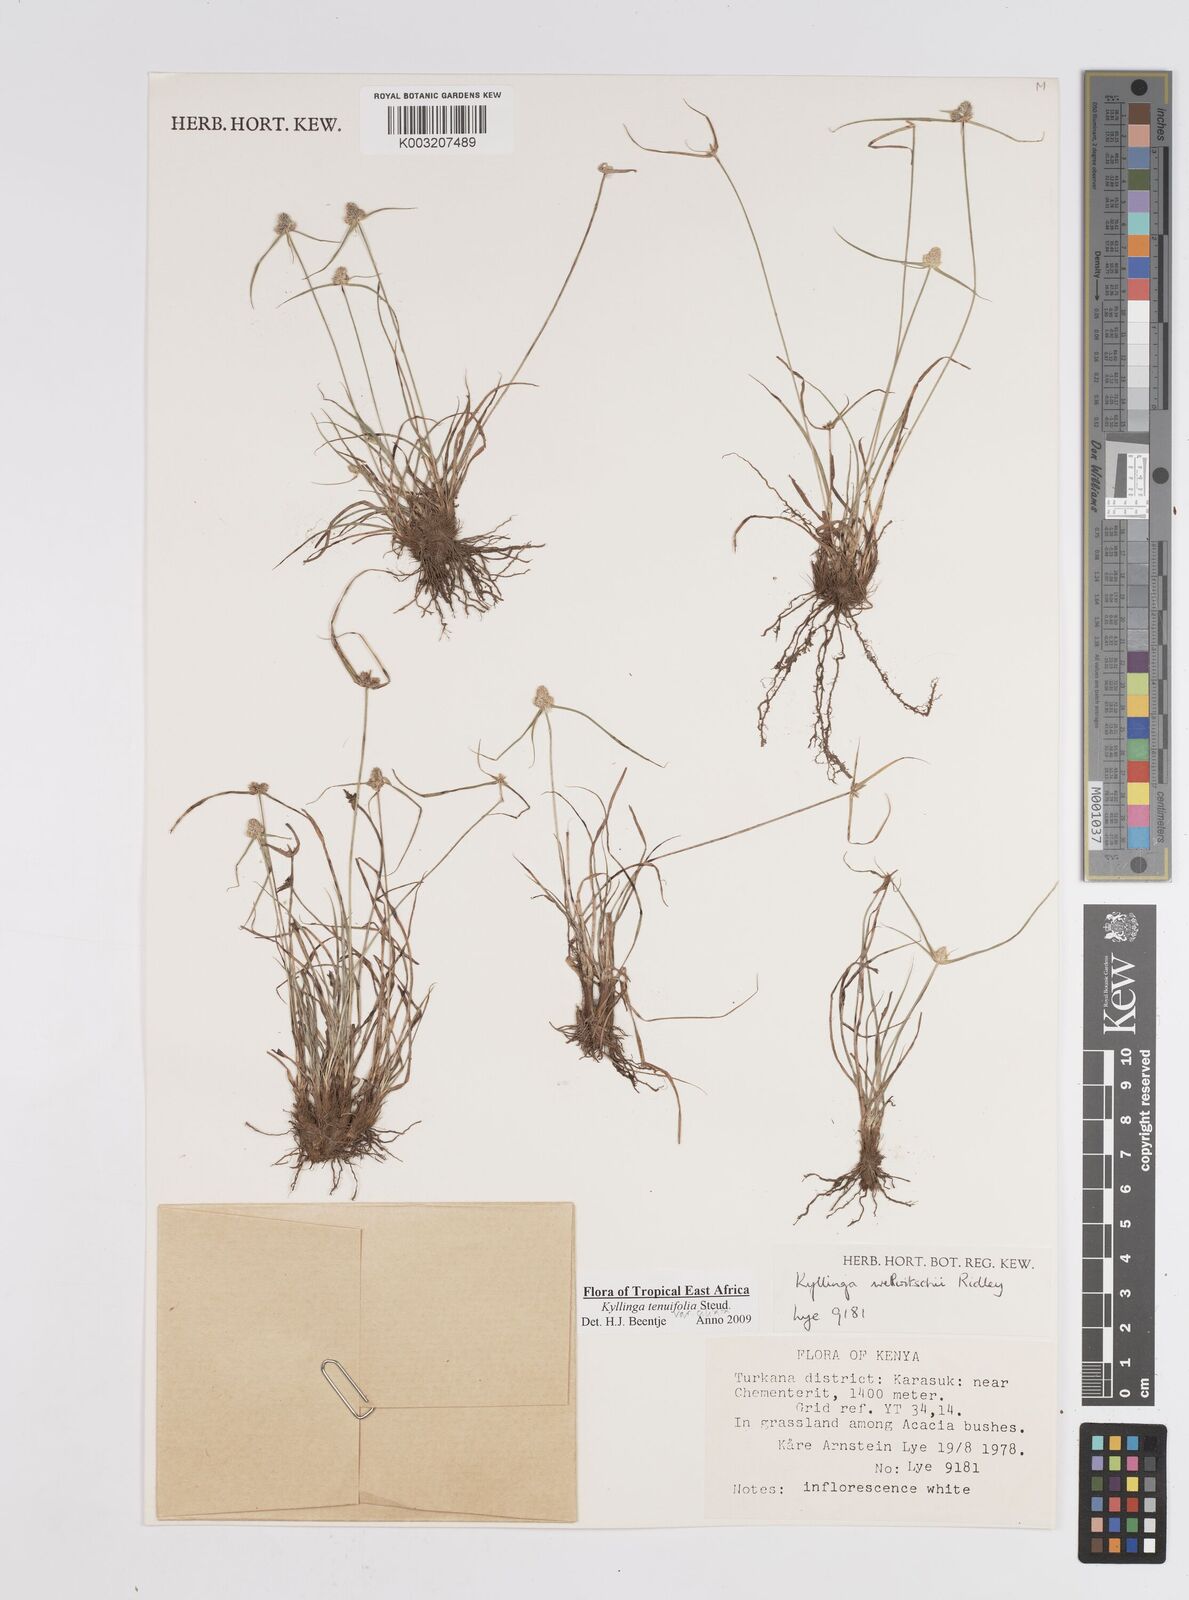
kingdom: Plantae
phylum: Tracheophyta
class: Liliopsida
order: Poales
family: Cyperaceae
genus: Cyperus
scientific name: Cyperus
